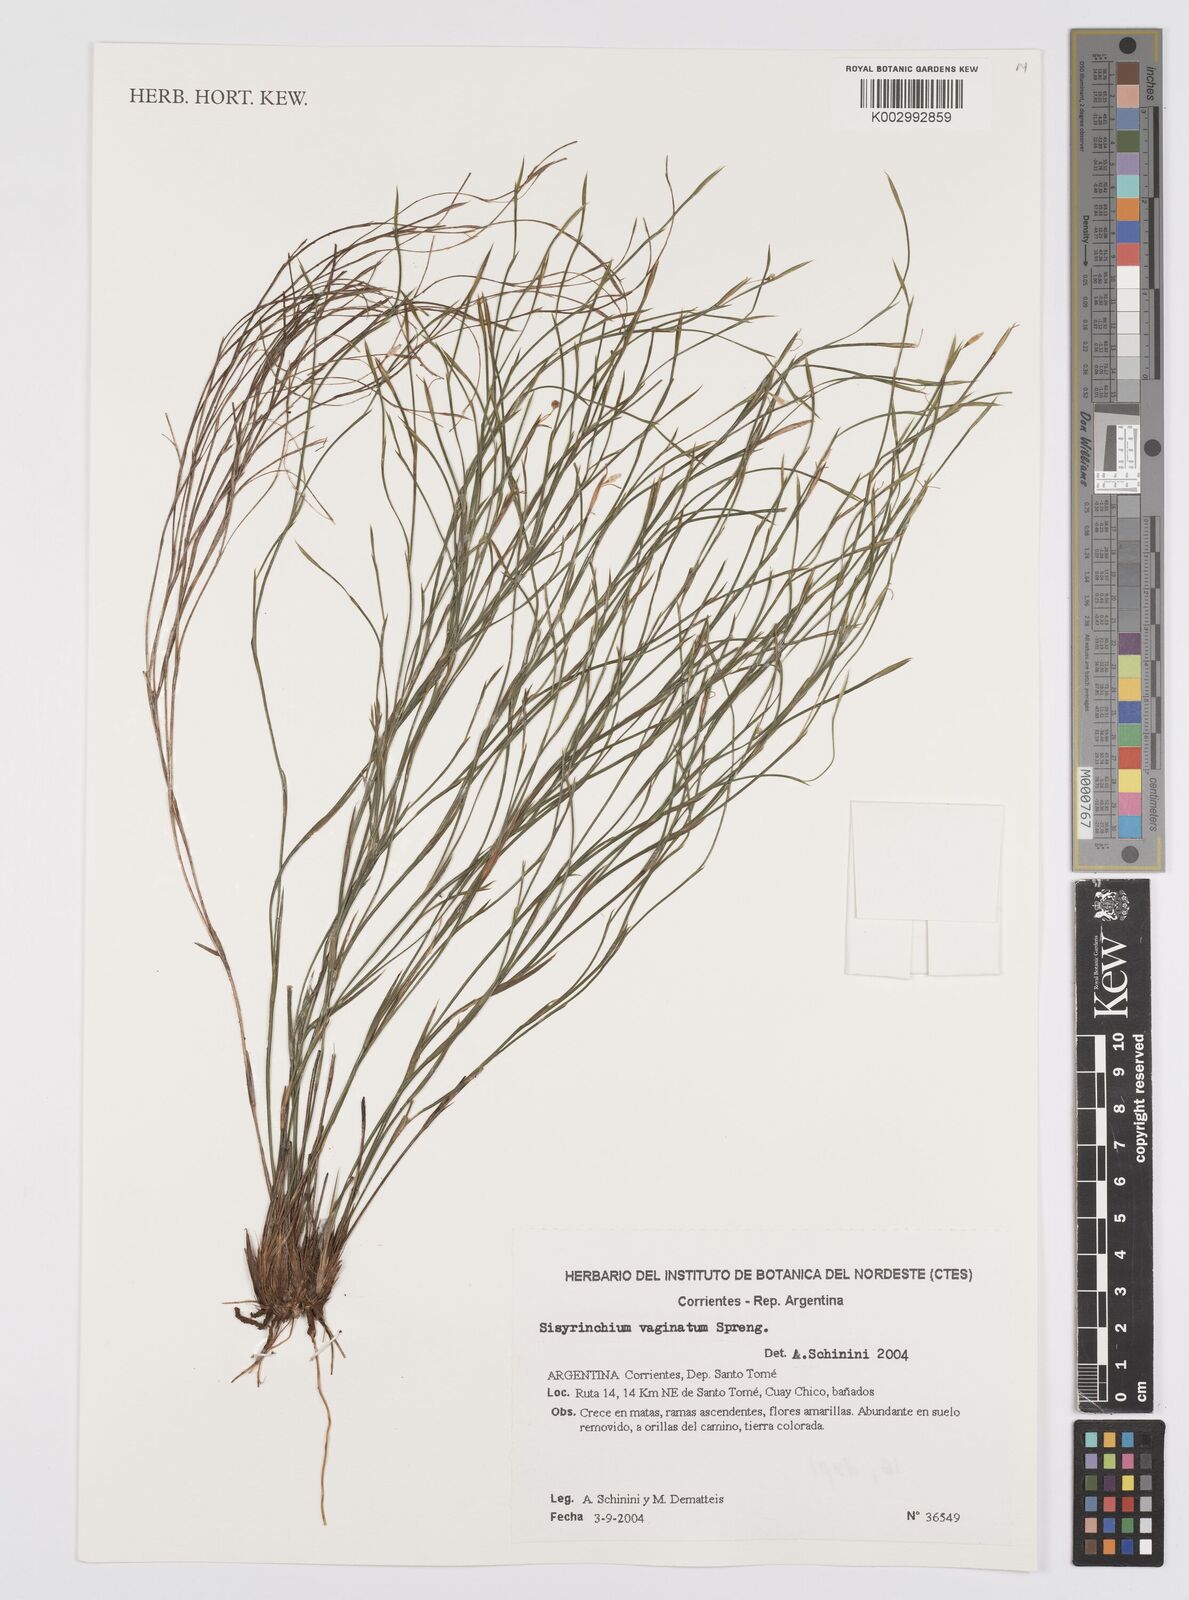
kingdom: Plantae
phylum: Tracheophyta
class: Liliopsida
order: Asparagales
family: Iridaceae
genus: Sisyrinchium
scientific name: Sisyrinchium vaginatum
